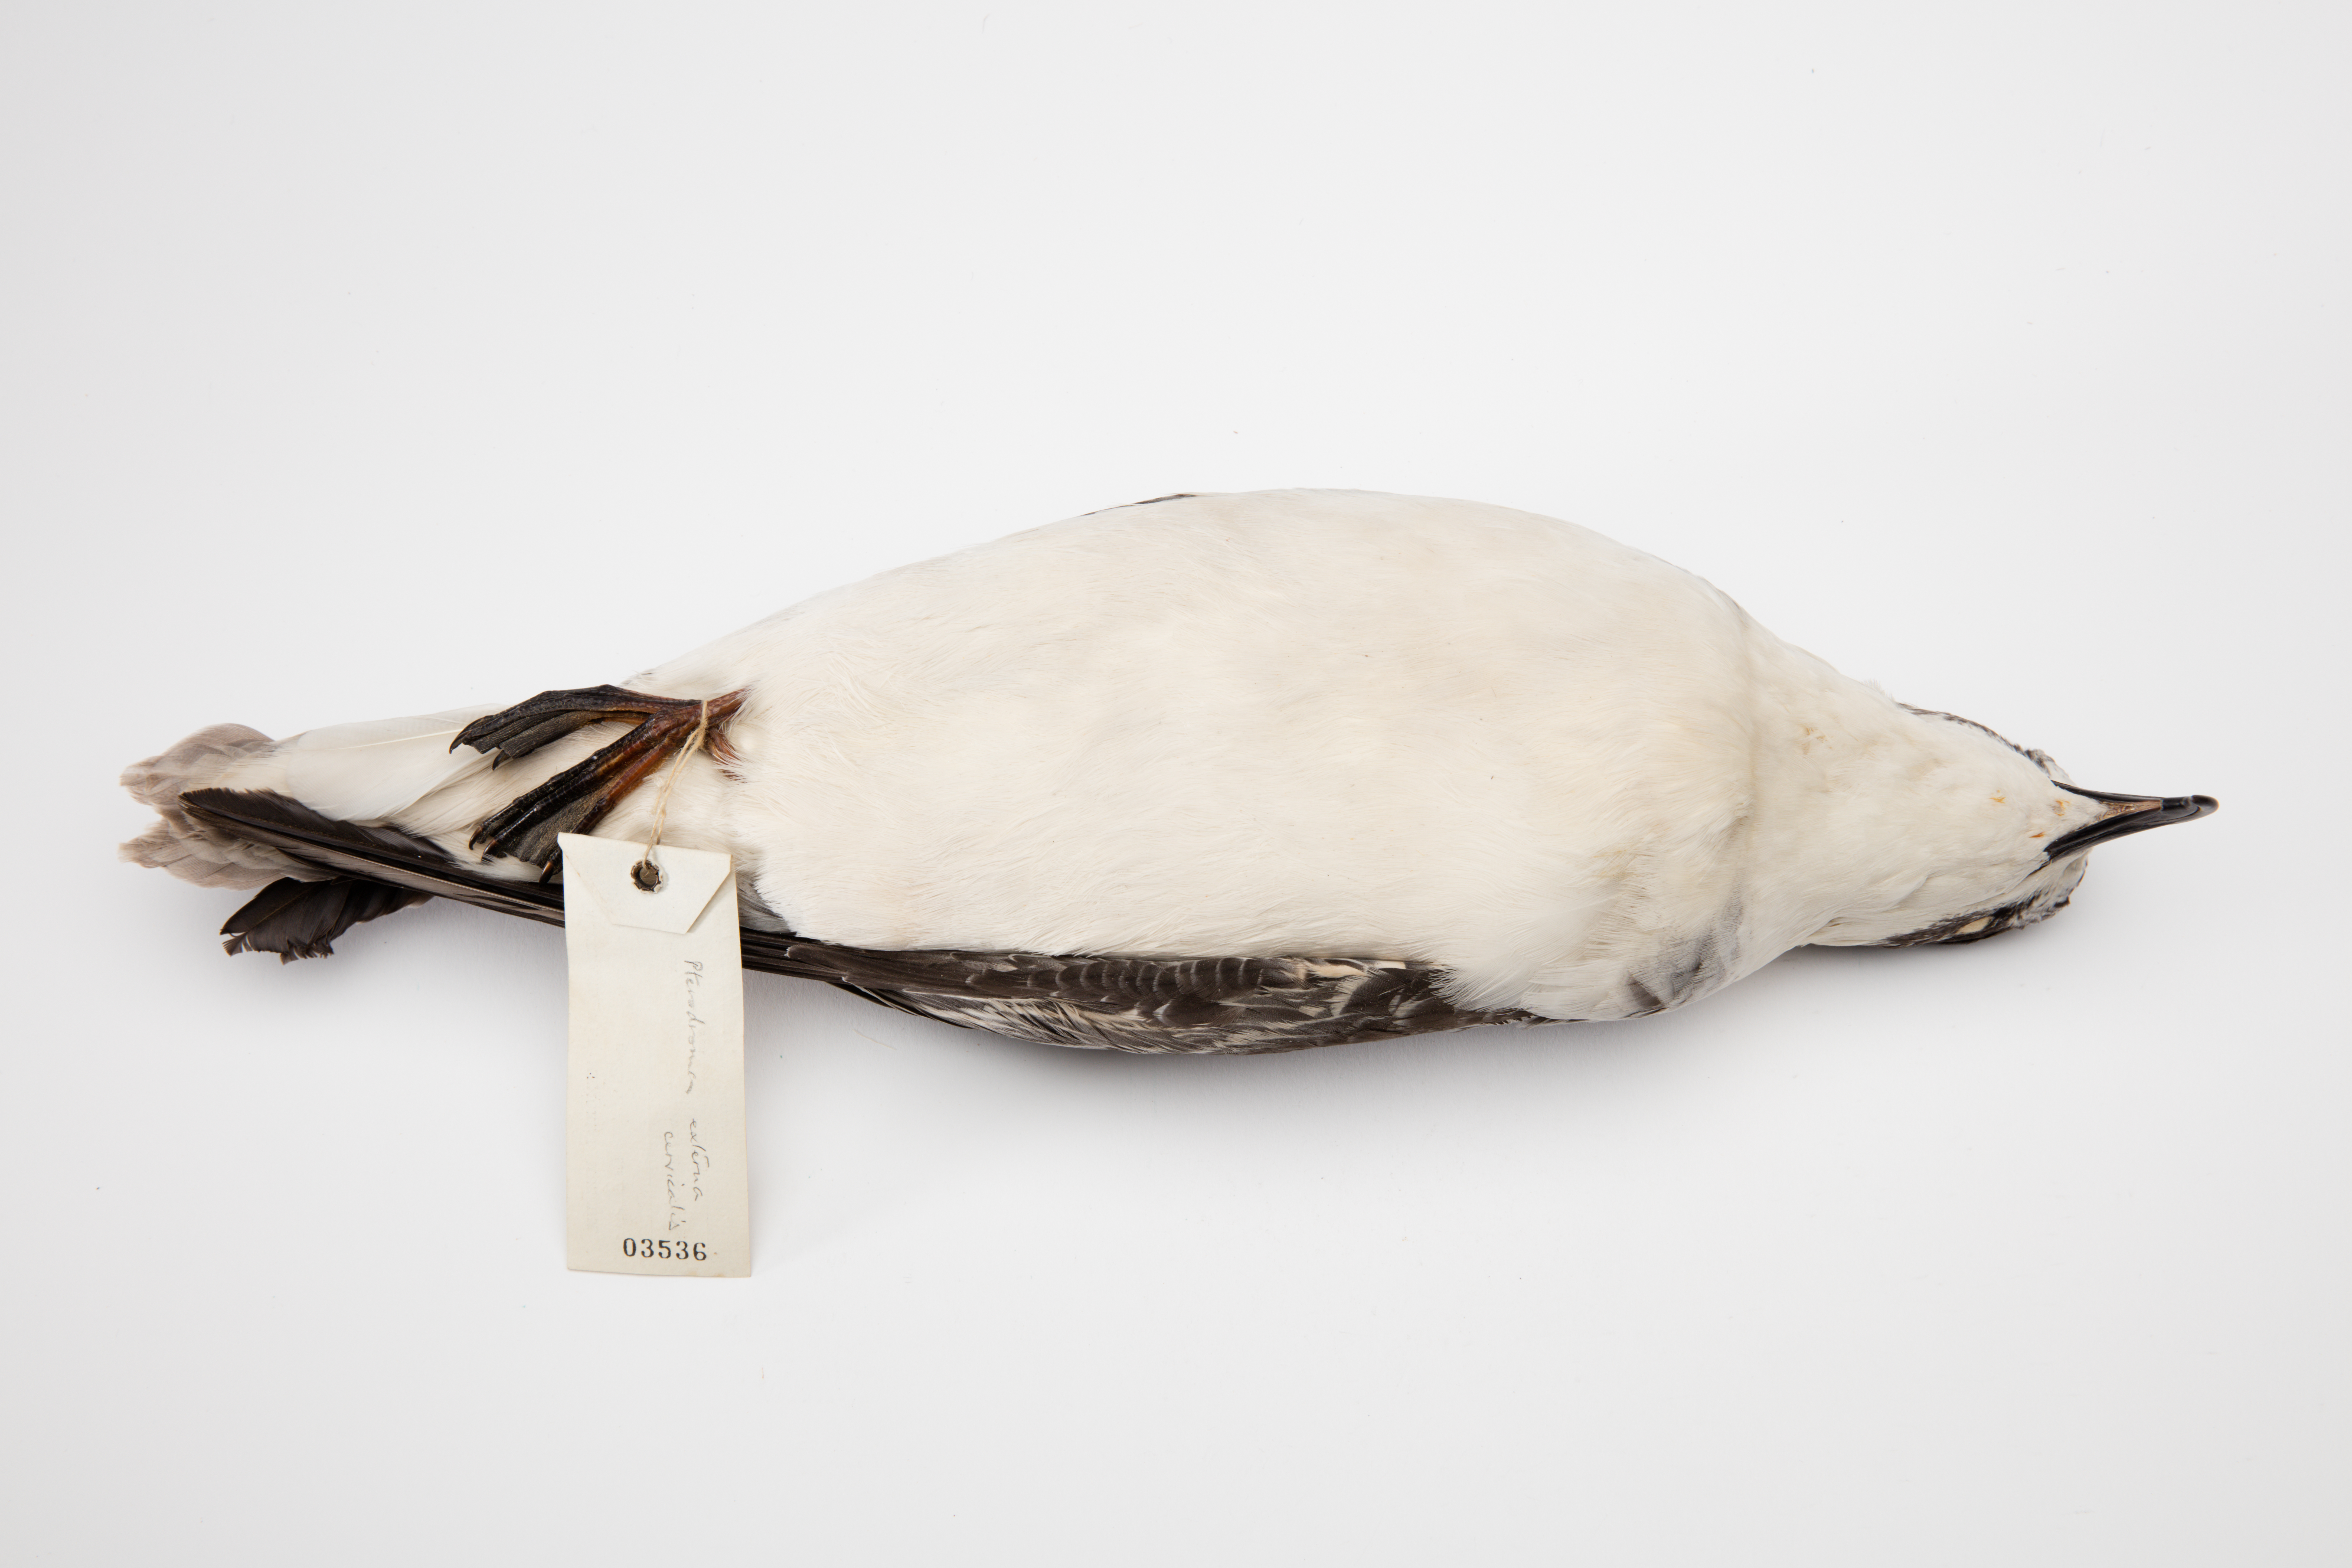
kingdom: Animalia
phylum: Chordata
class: Aves
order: Procellariiformes
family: Procellariidae
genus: Pterodroma
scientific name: Pterodroma cervicalis
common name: White-necked petrel
